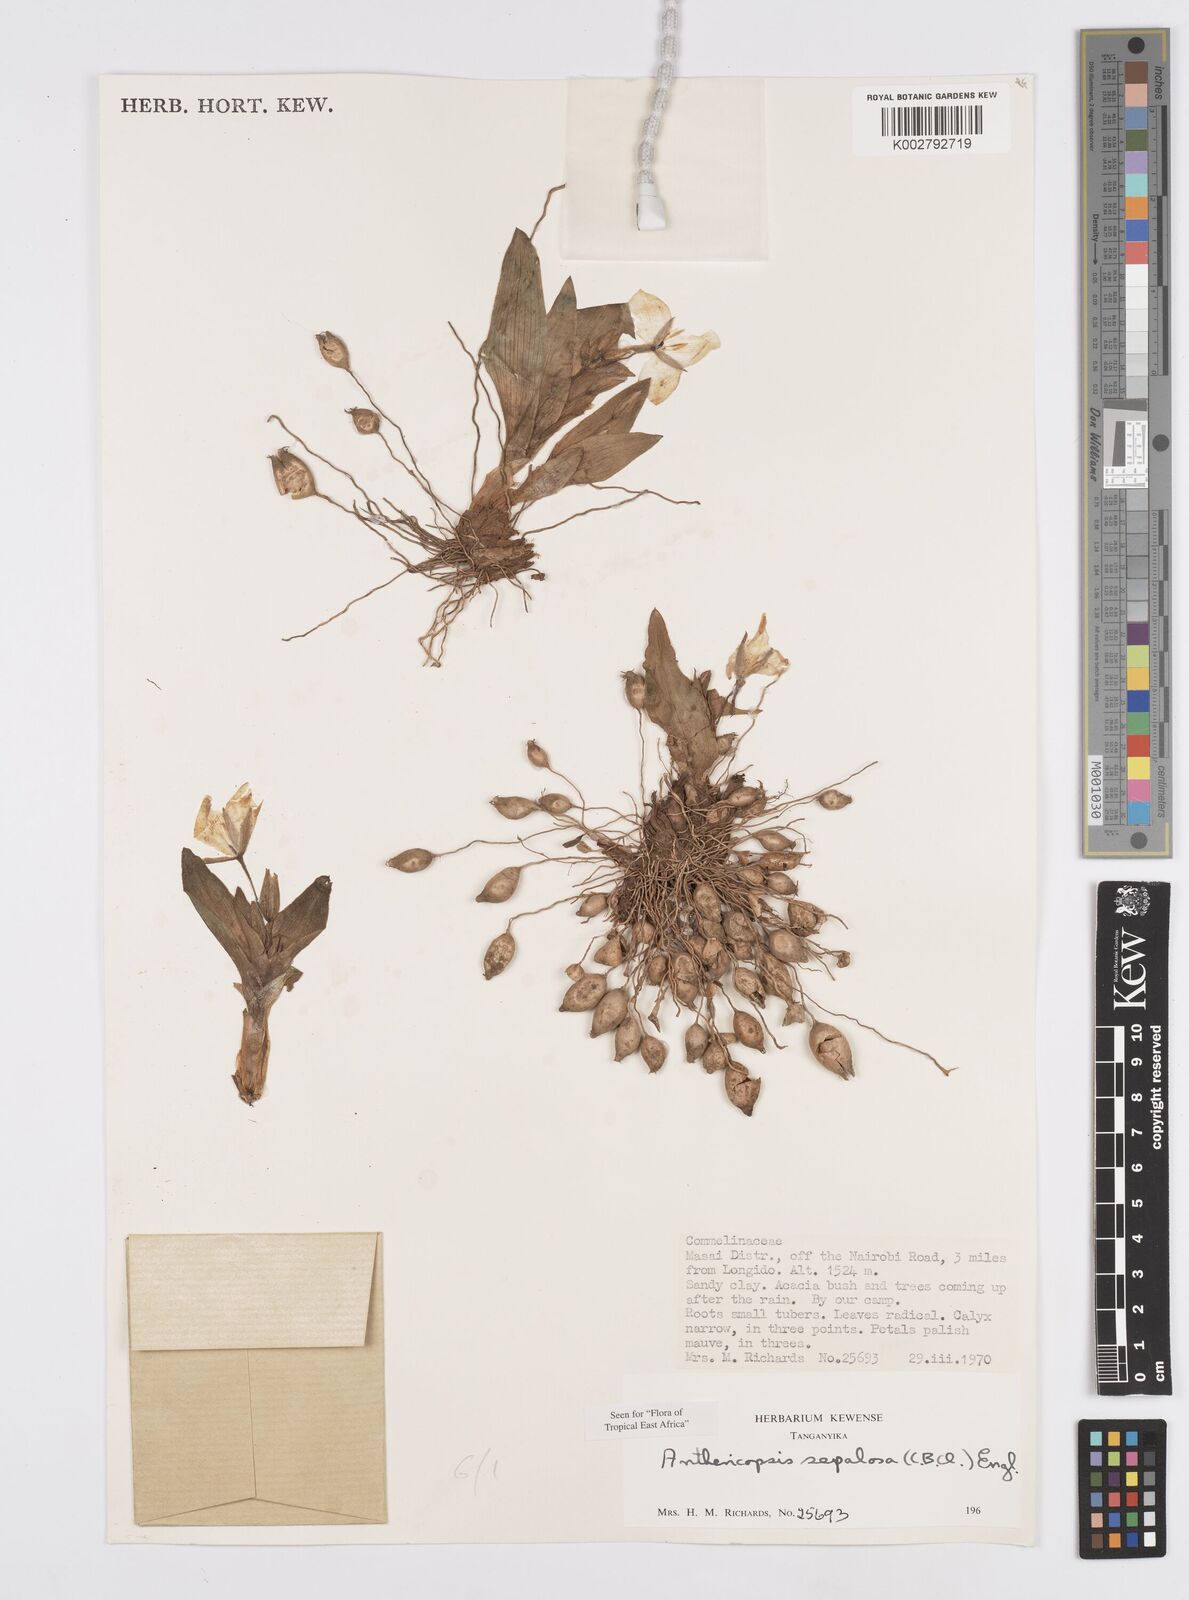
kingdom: Plantae
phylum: Tracheophyta
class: Liliopsida
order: Commelinales
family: Commelinaceae
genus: Anthericopsis
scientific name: Anthericopsis sepalosa
